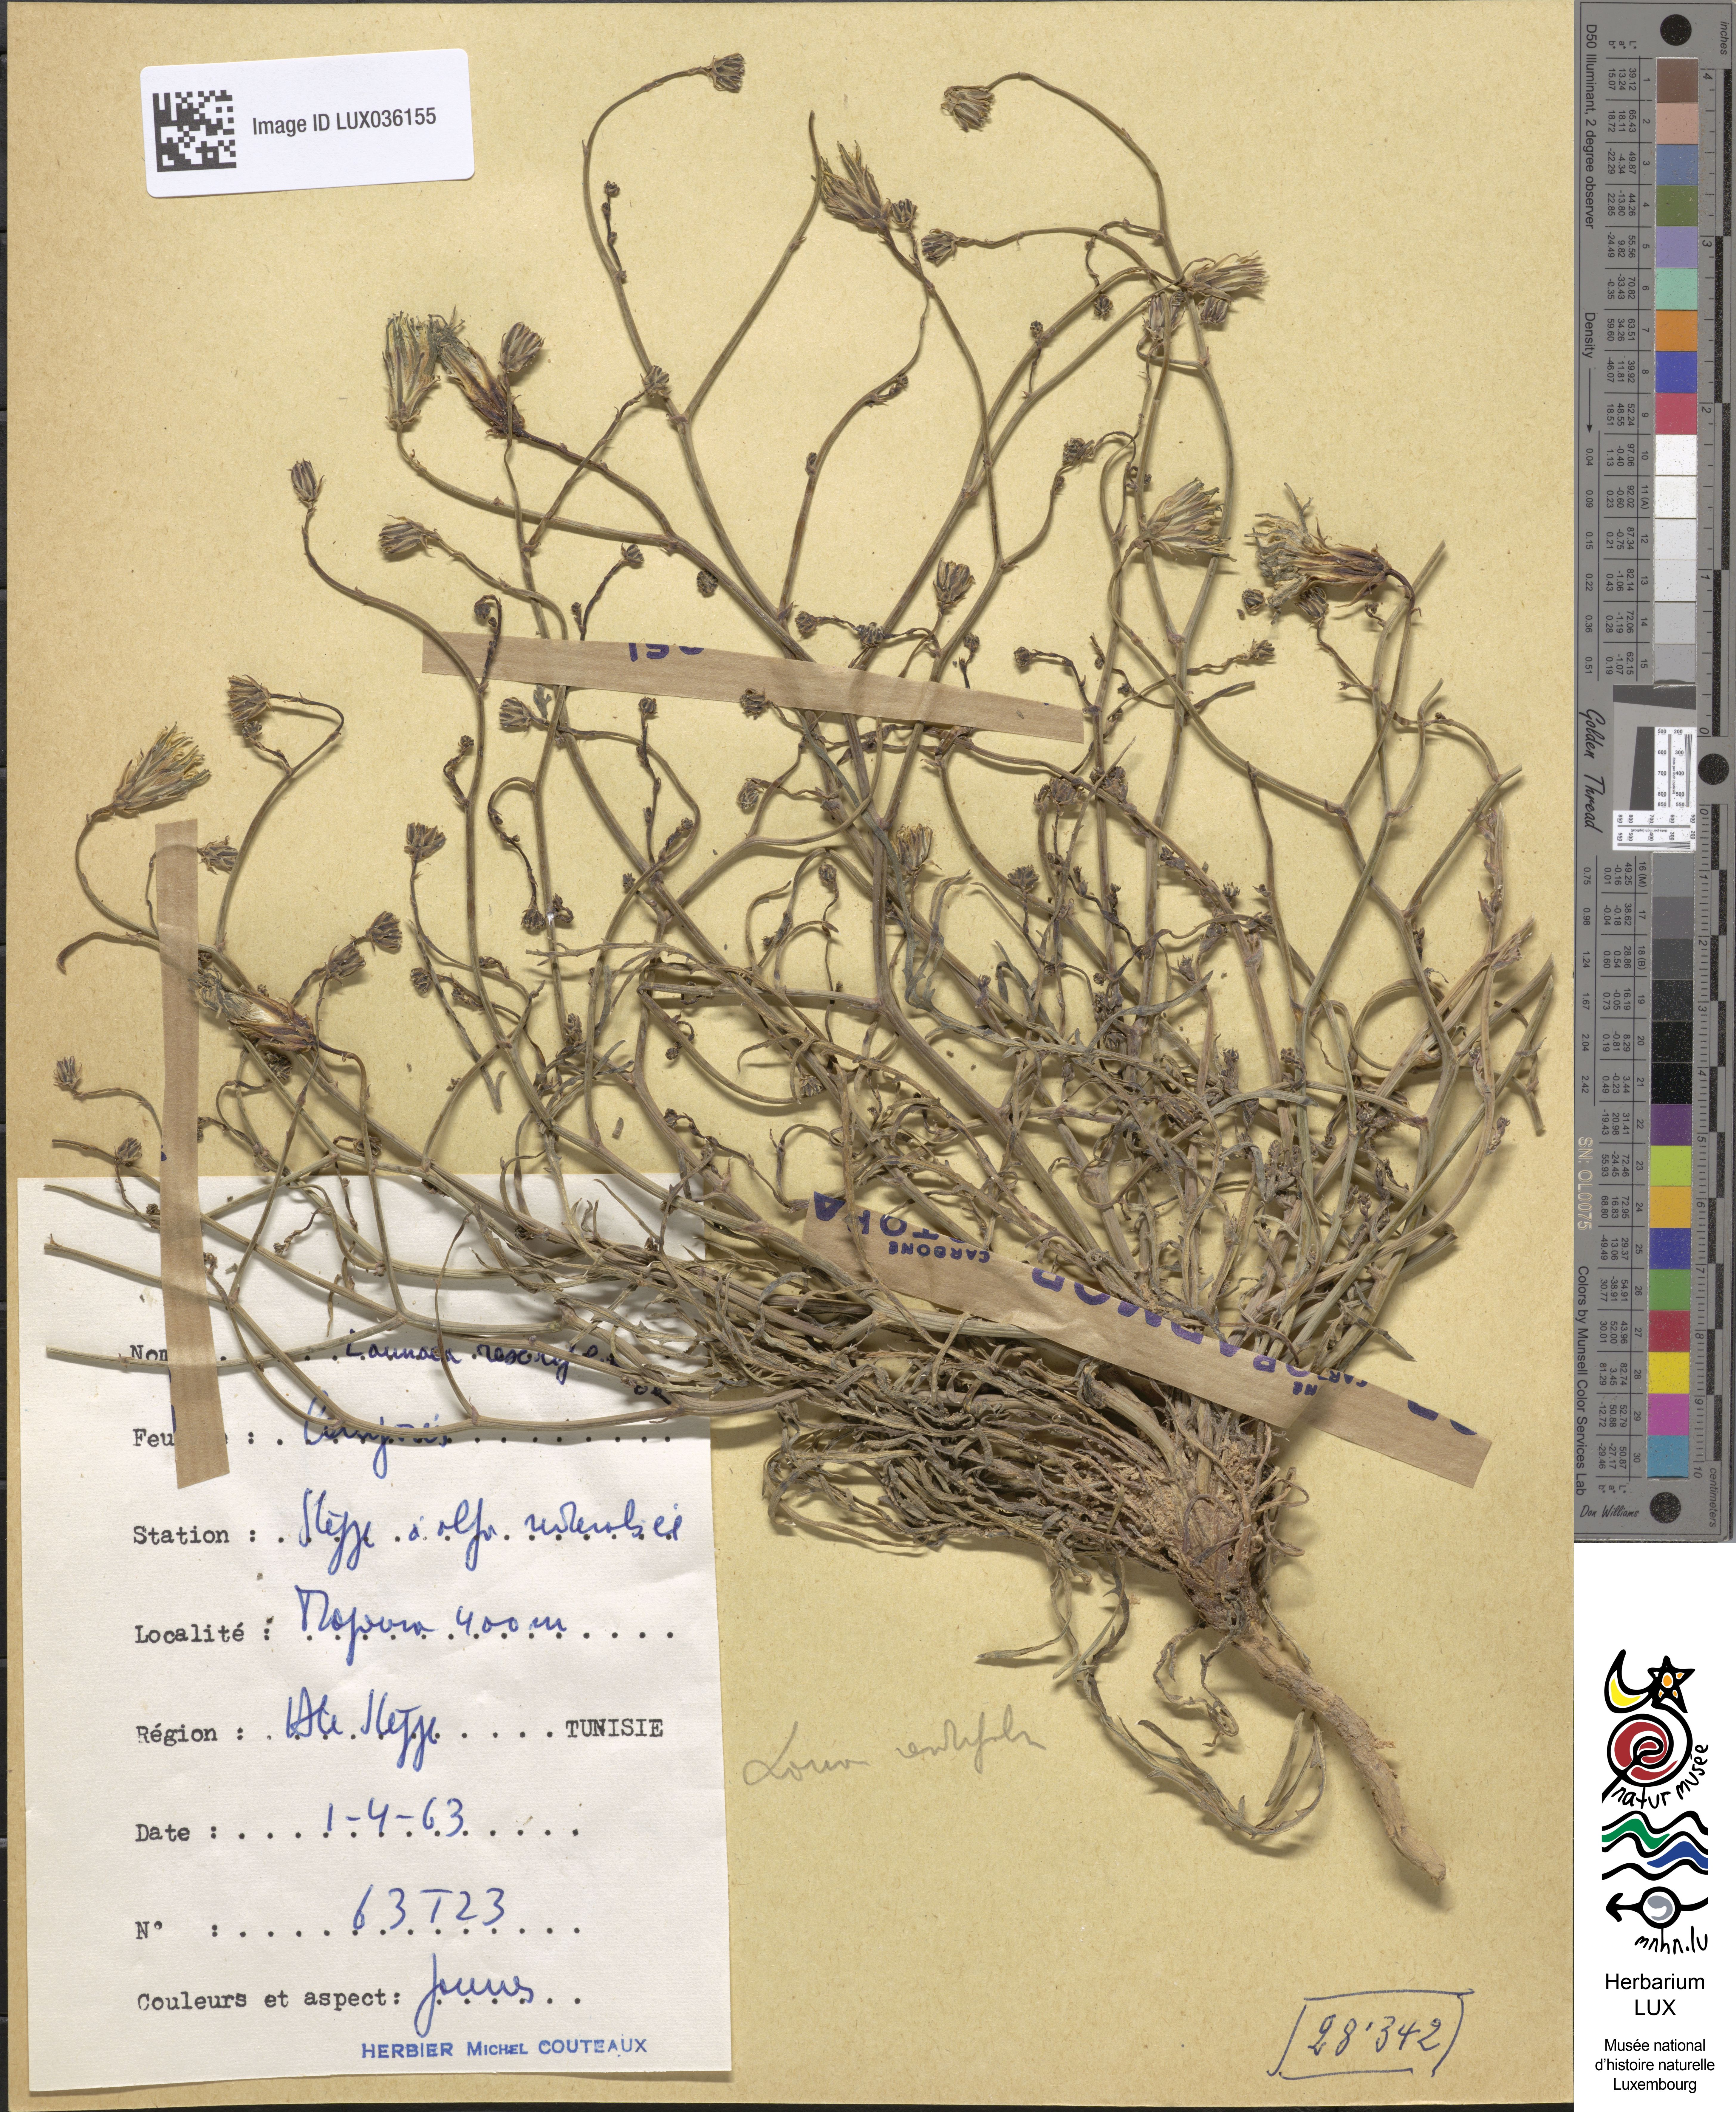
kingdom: Plantae
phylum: Tracheophyta
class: Magnoliopsida
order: Asterales
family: Asteraceae
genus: Launaea
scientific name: Launaea fragilis
